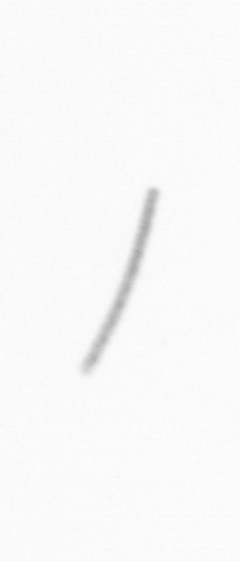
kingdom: Chromista
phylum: Ochrophyta
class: Bacillariophyceae
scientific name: Bacillariophyceae
